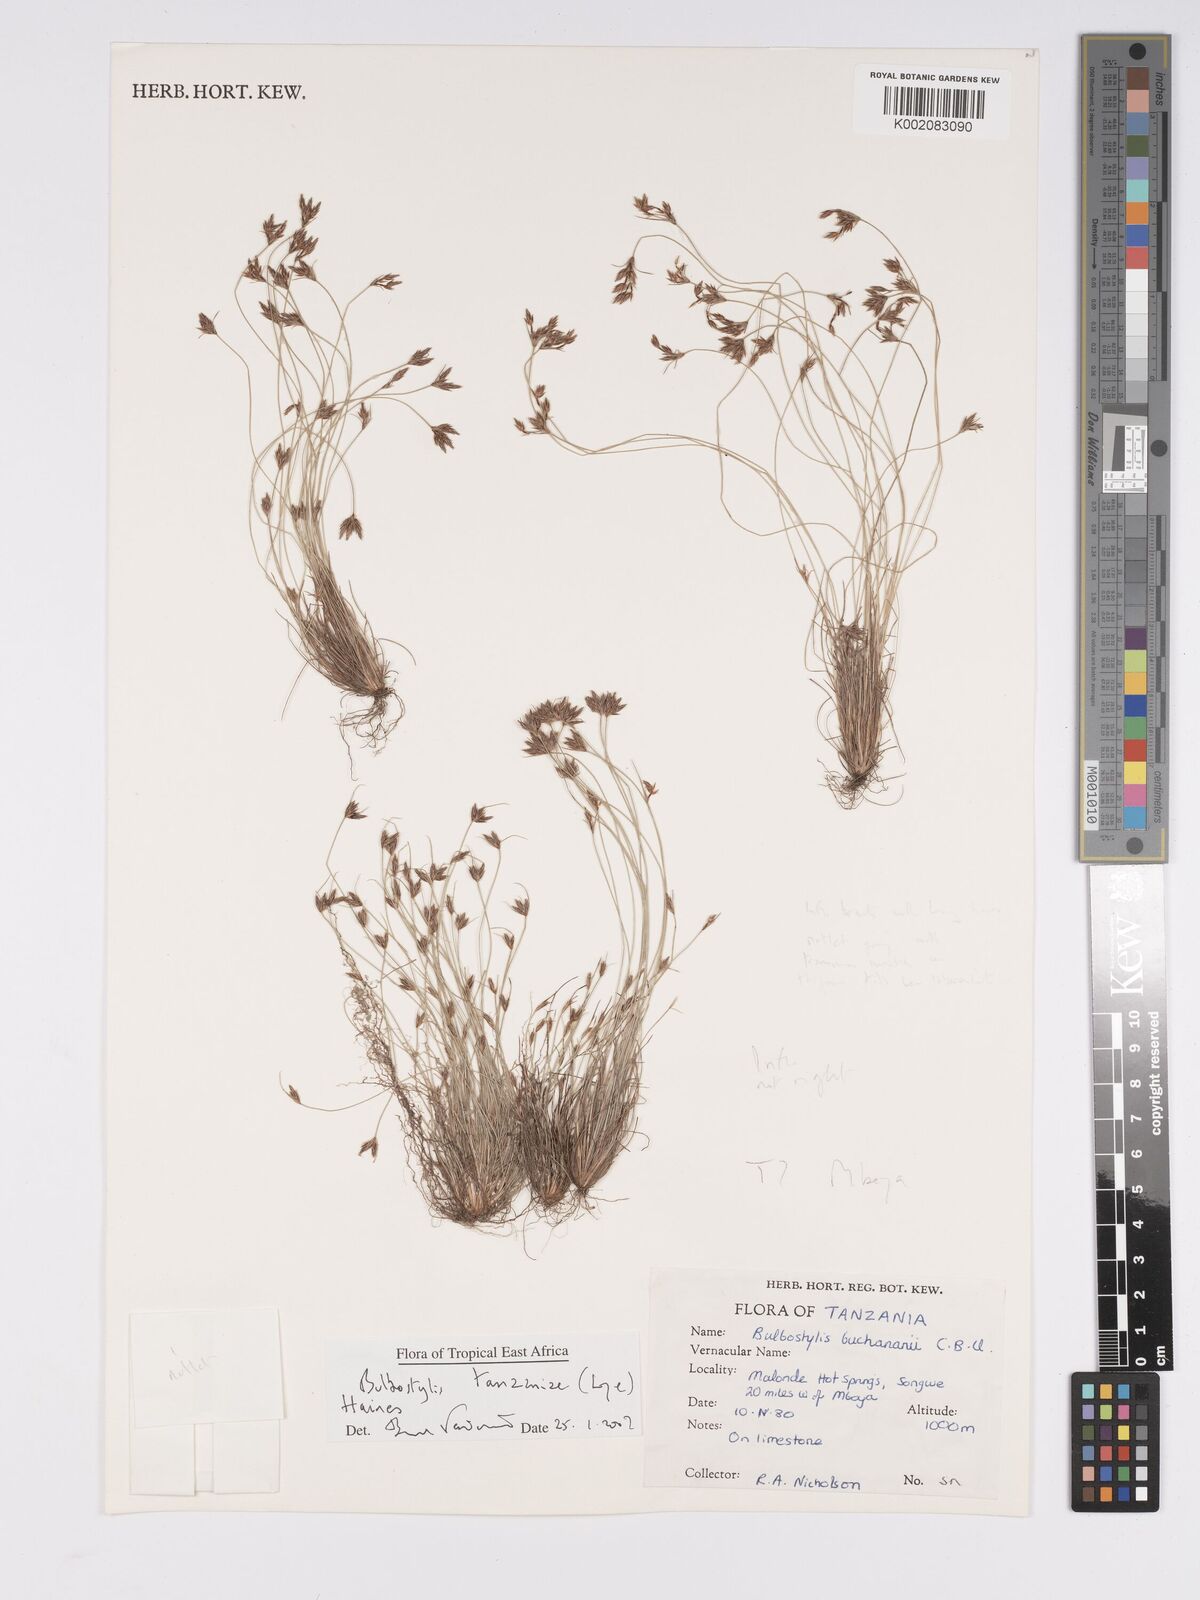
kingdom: Plantae
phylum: Tracheophyta
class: Liliopsida
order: Poales
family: Cyperaceae
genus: Bulbostylis
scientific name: Bulbostylis tanzaniae
